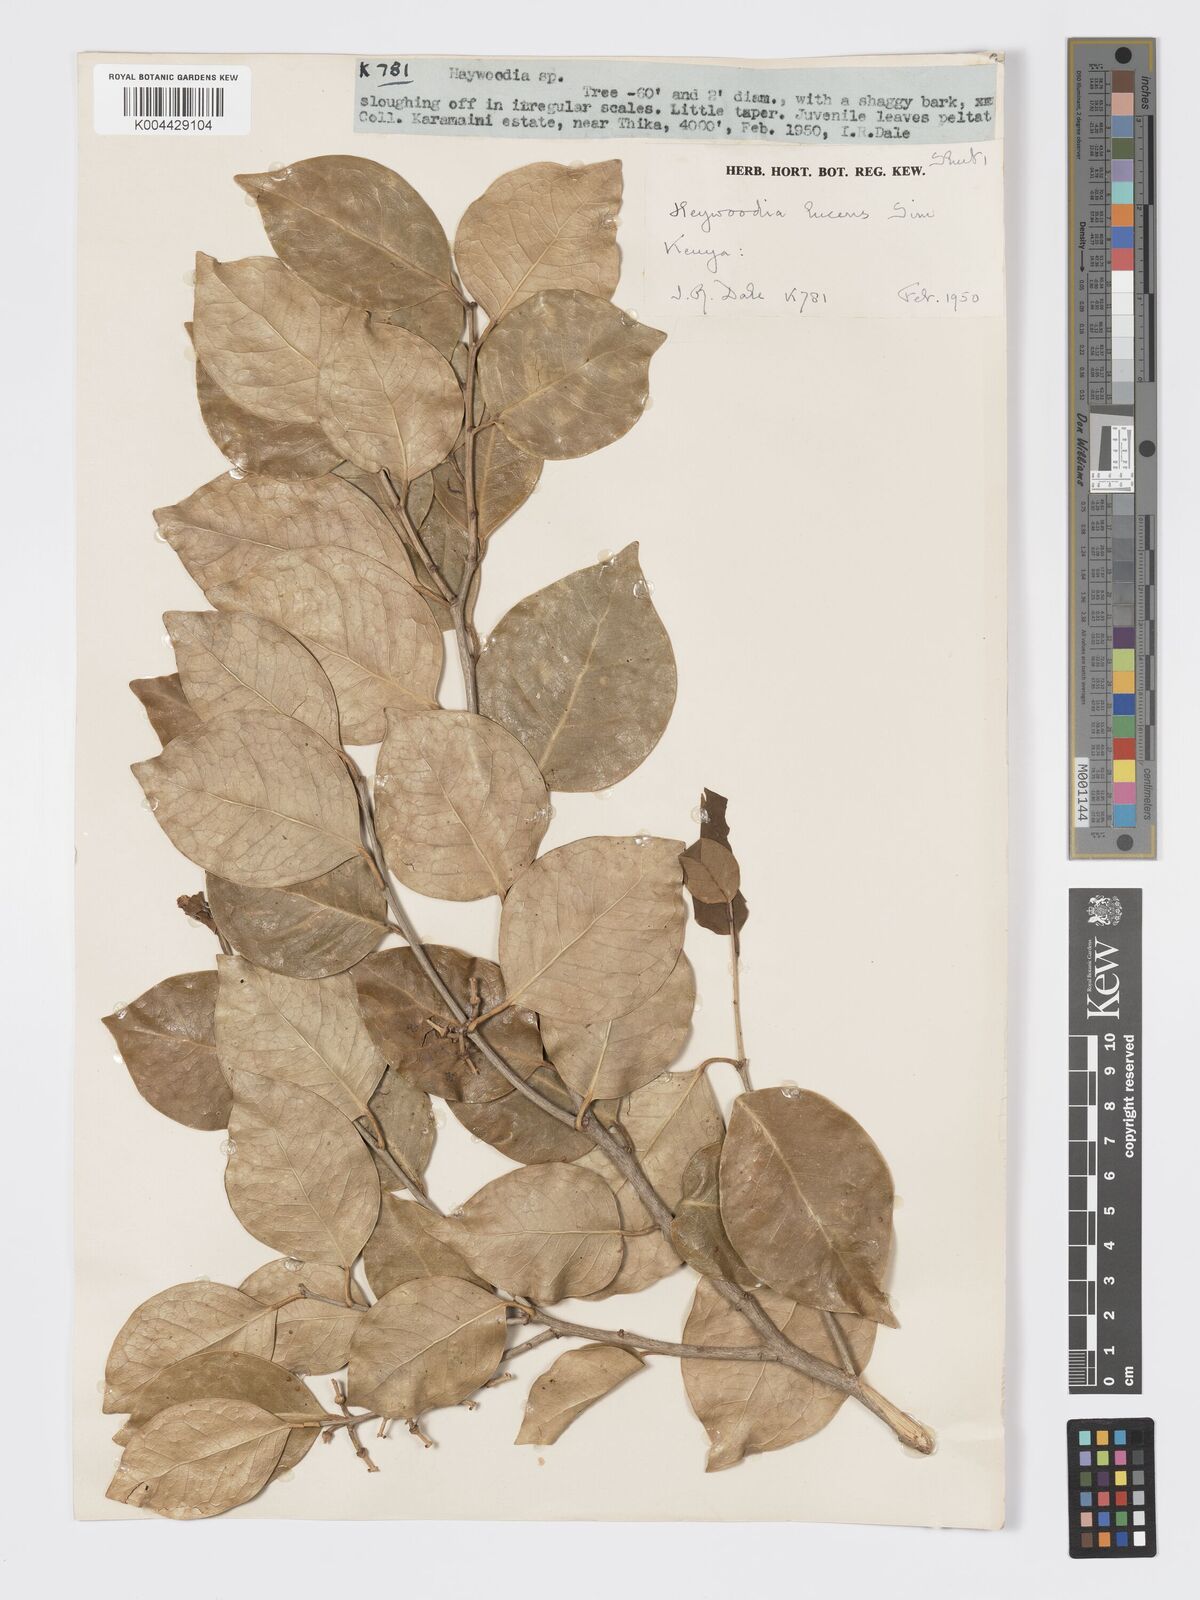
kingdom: Plantae
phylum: Tracheophyta
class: Magnoliopsida
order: Malpighiales
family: Phyllanthaceae
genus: Heywoodia
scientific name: Heywoodia lucens
